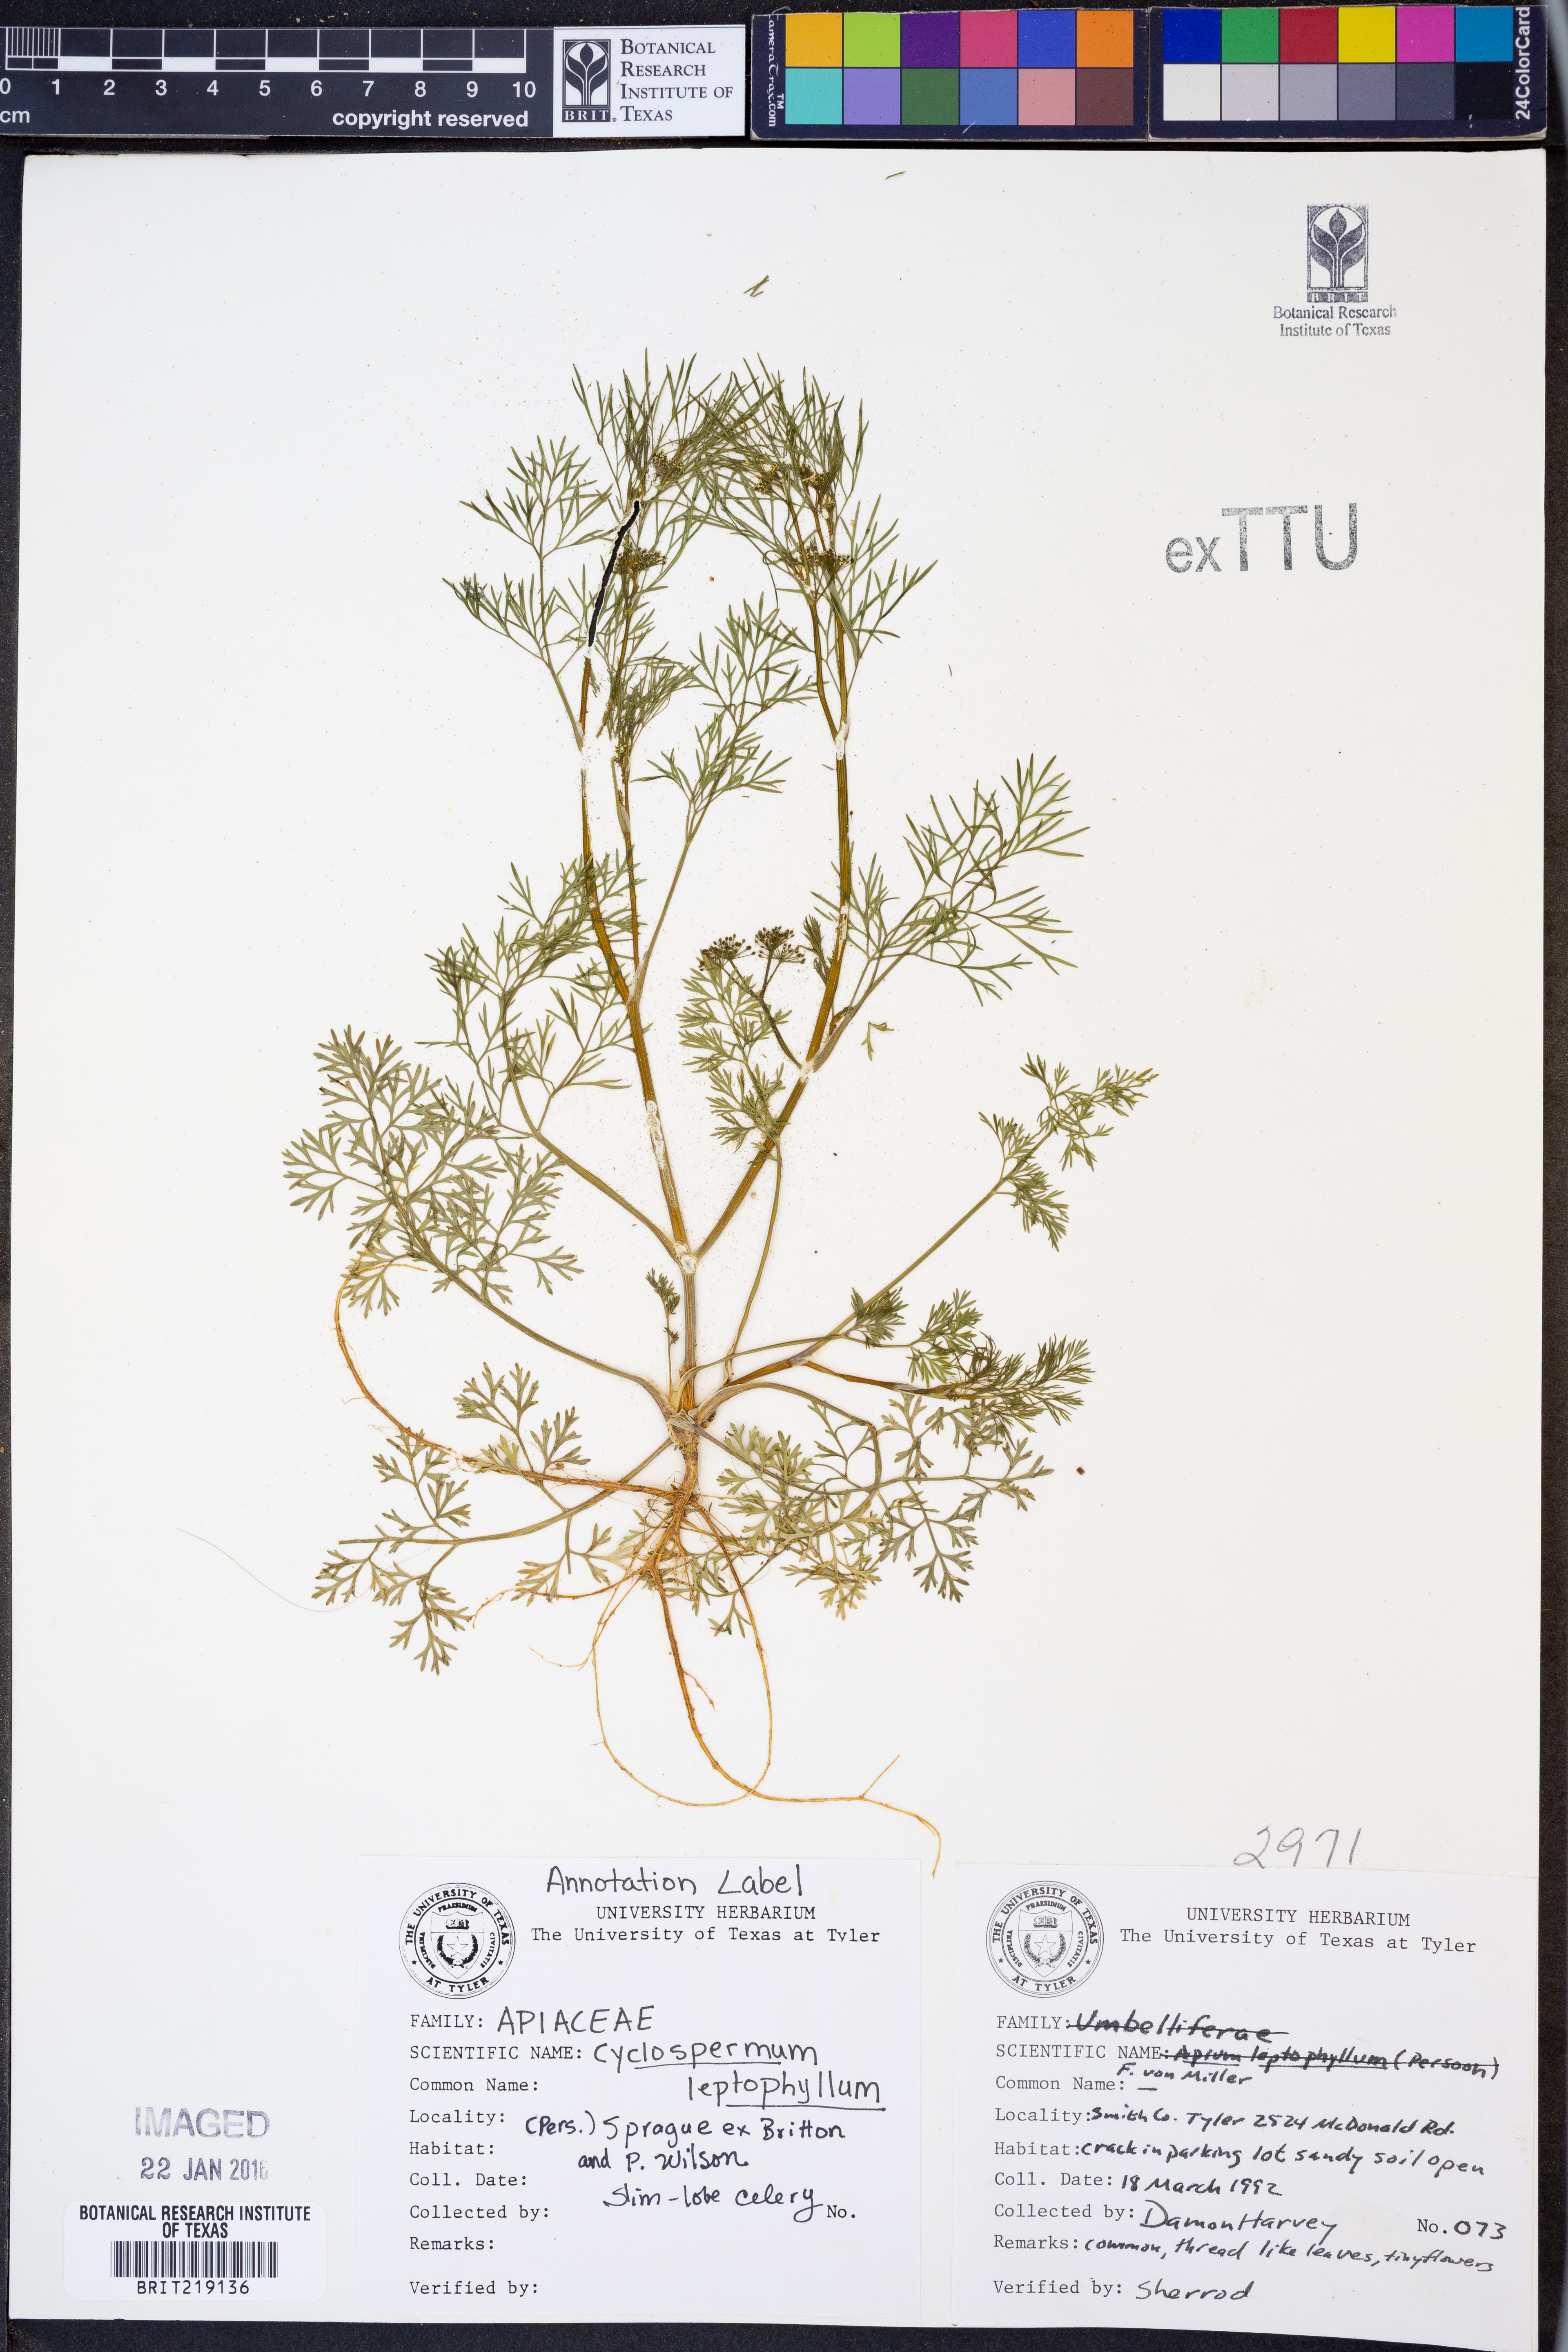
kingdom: Plantae
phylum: Tracheophyta
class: Magnoliopsida
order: Apiales
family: Apiaceae
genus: Cyclospermum
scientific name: Cyclospermum leptophyllum
